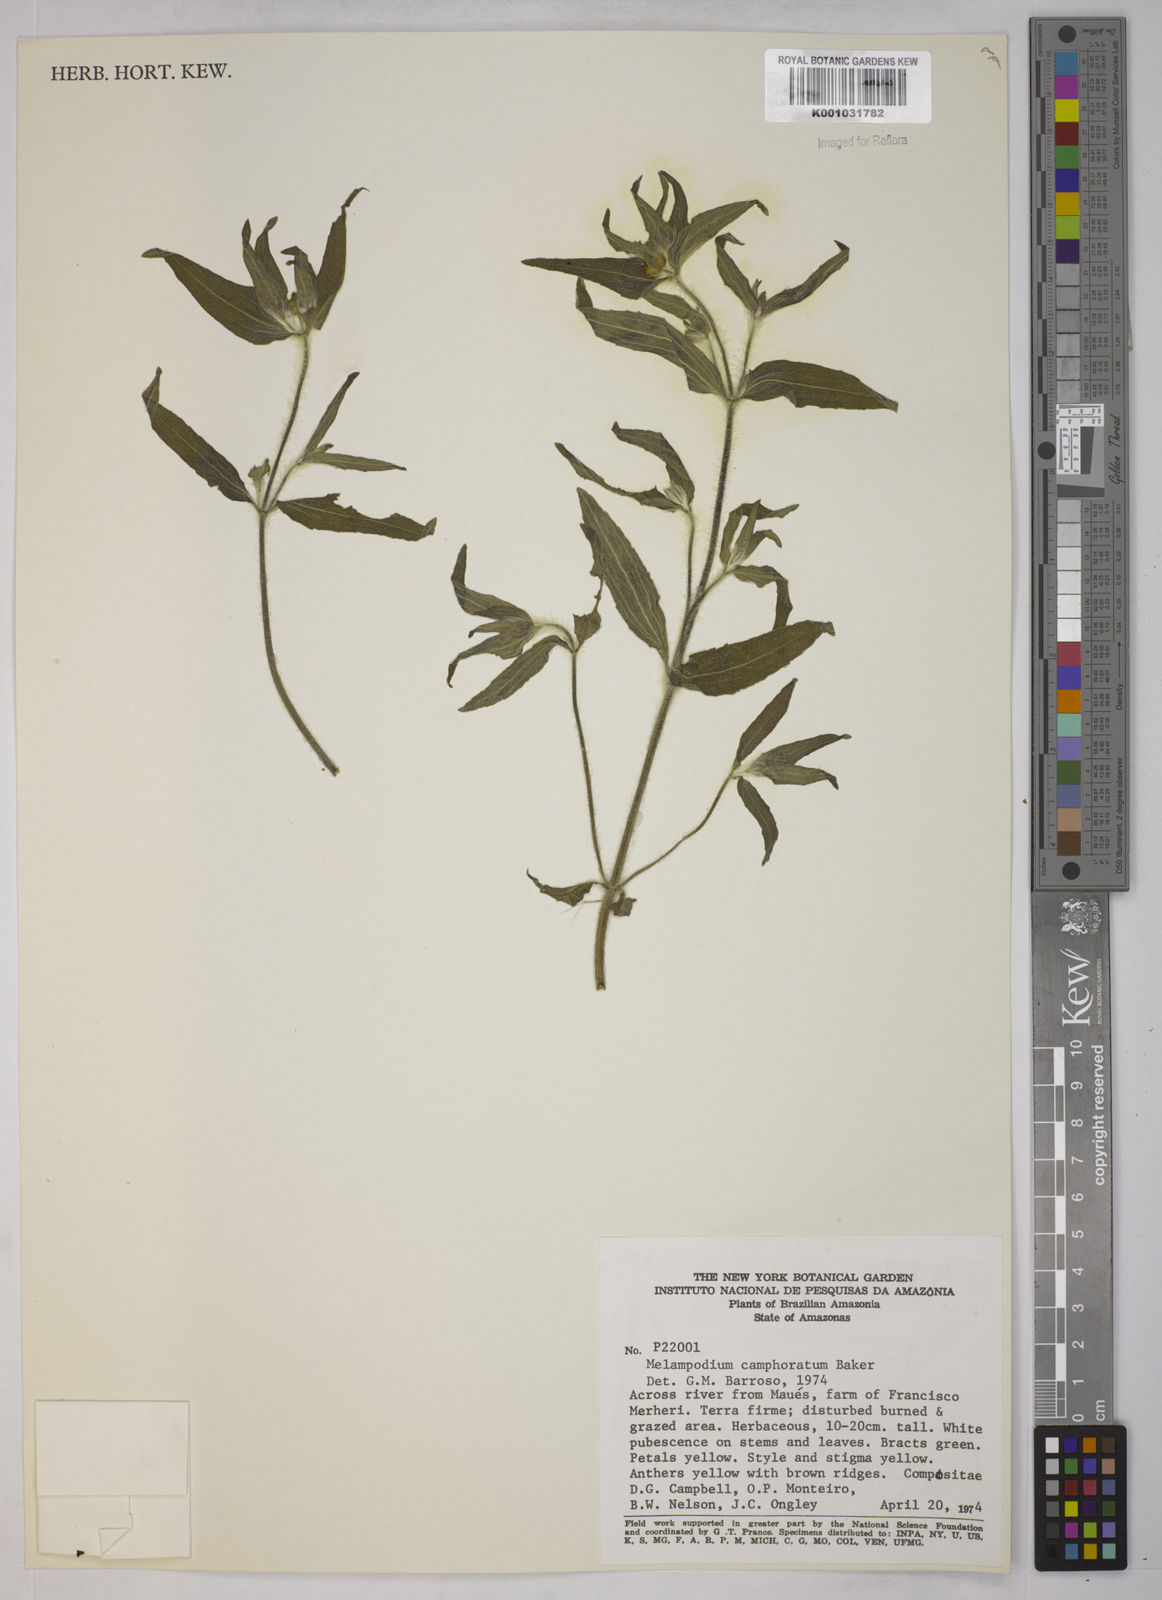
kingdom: Plantae
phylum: Tracheophyta
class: Magnoliopsida
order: Asterales
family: Asteraceae
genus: Unxia
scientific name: Unxia camphorata
